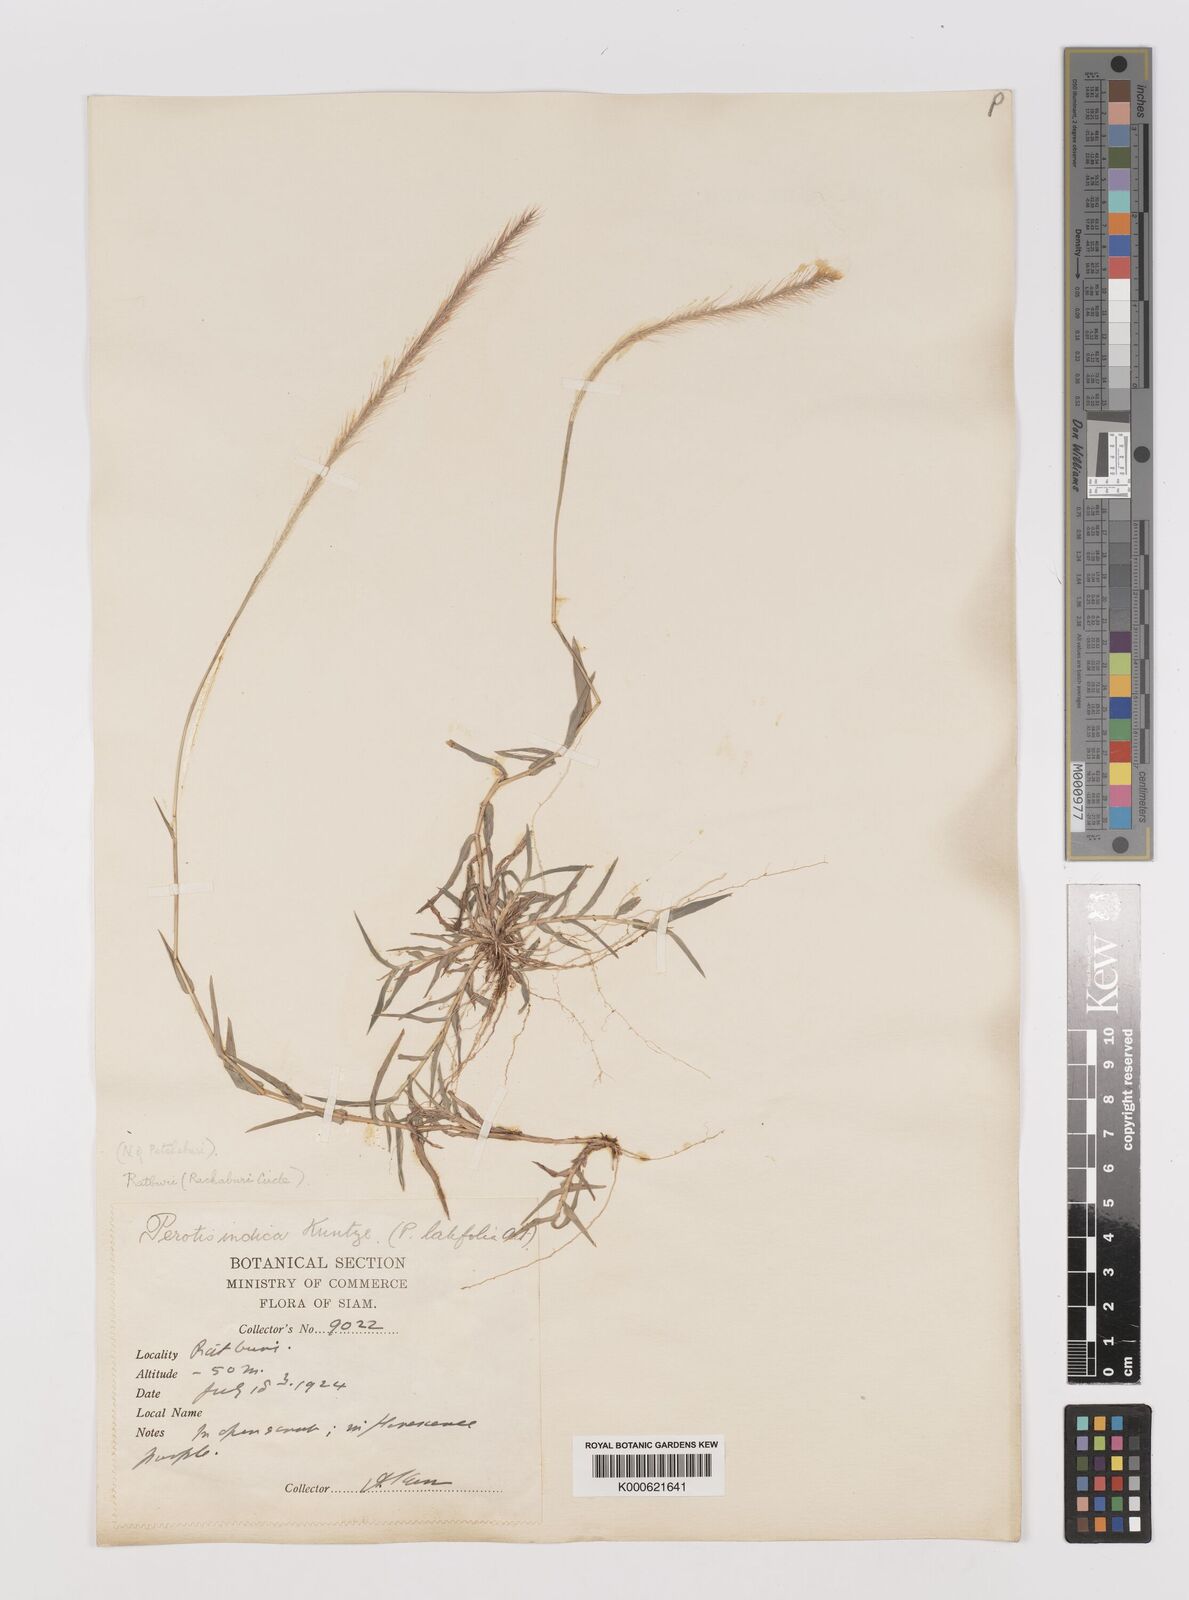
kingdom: Plantae
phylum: Tracheophyta
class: Liliopsida
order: Poales
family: Poaceae
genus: Perotis
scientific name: Perotis indica
